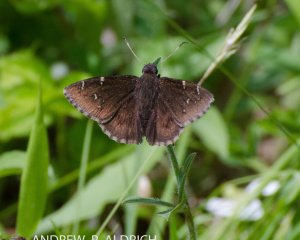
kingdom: Animalia
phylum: Arthropoda
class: Insecta
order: Lepidoptera
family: Hesperiidae
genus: Autochton
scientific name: Autochton
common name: Northern Cloudywing
